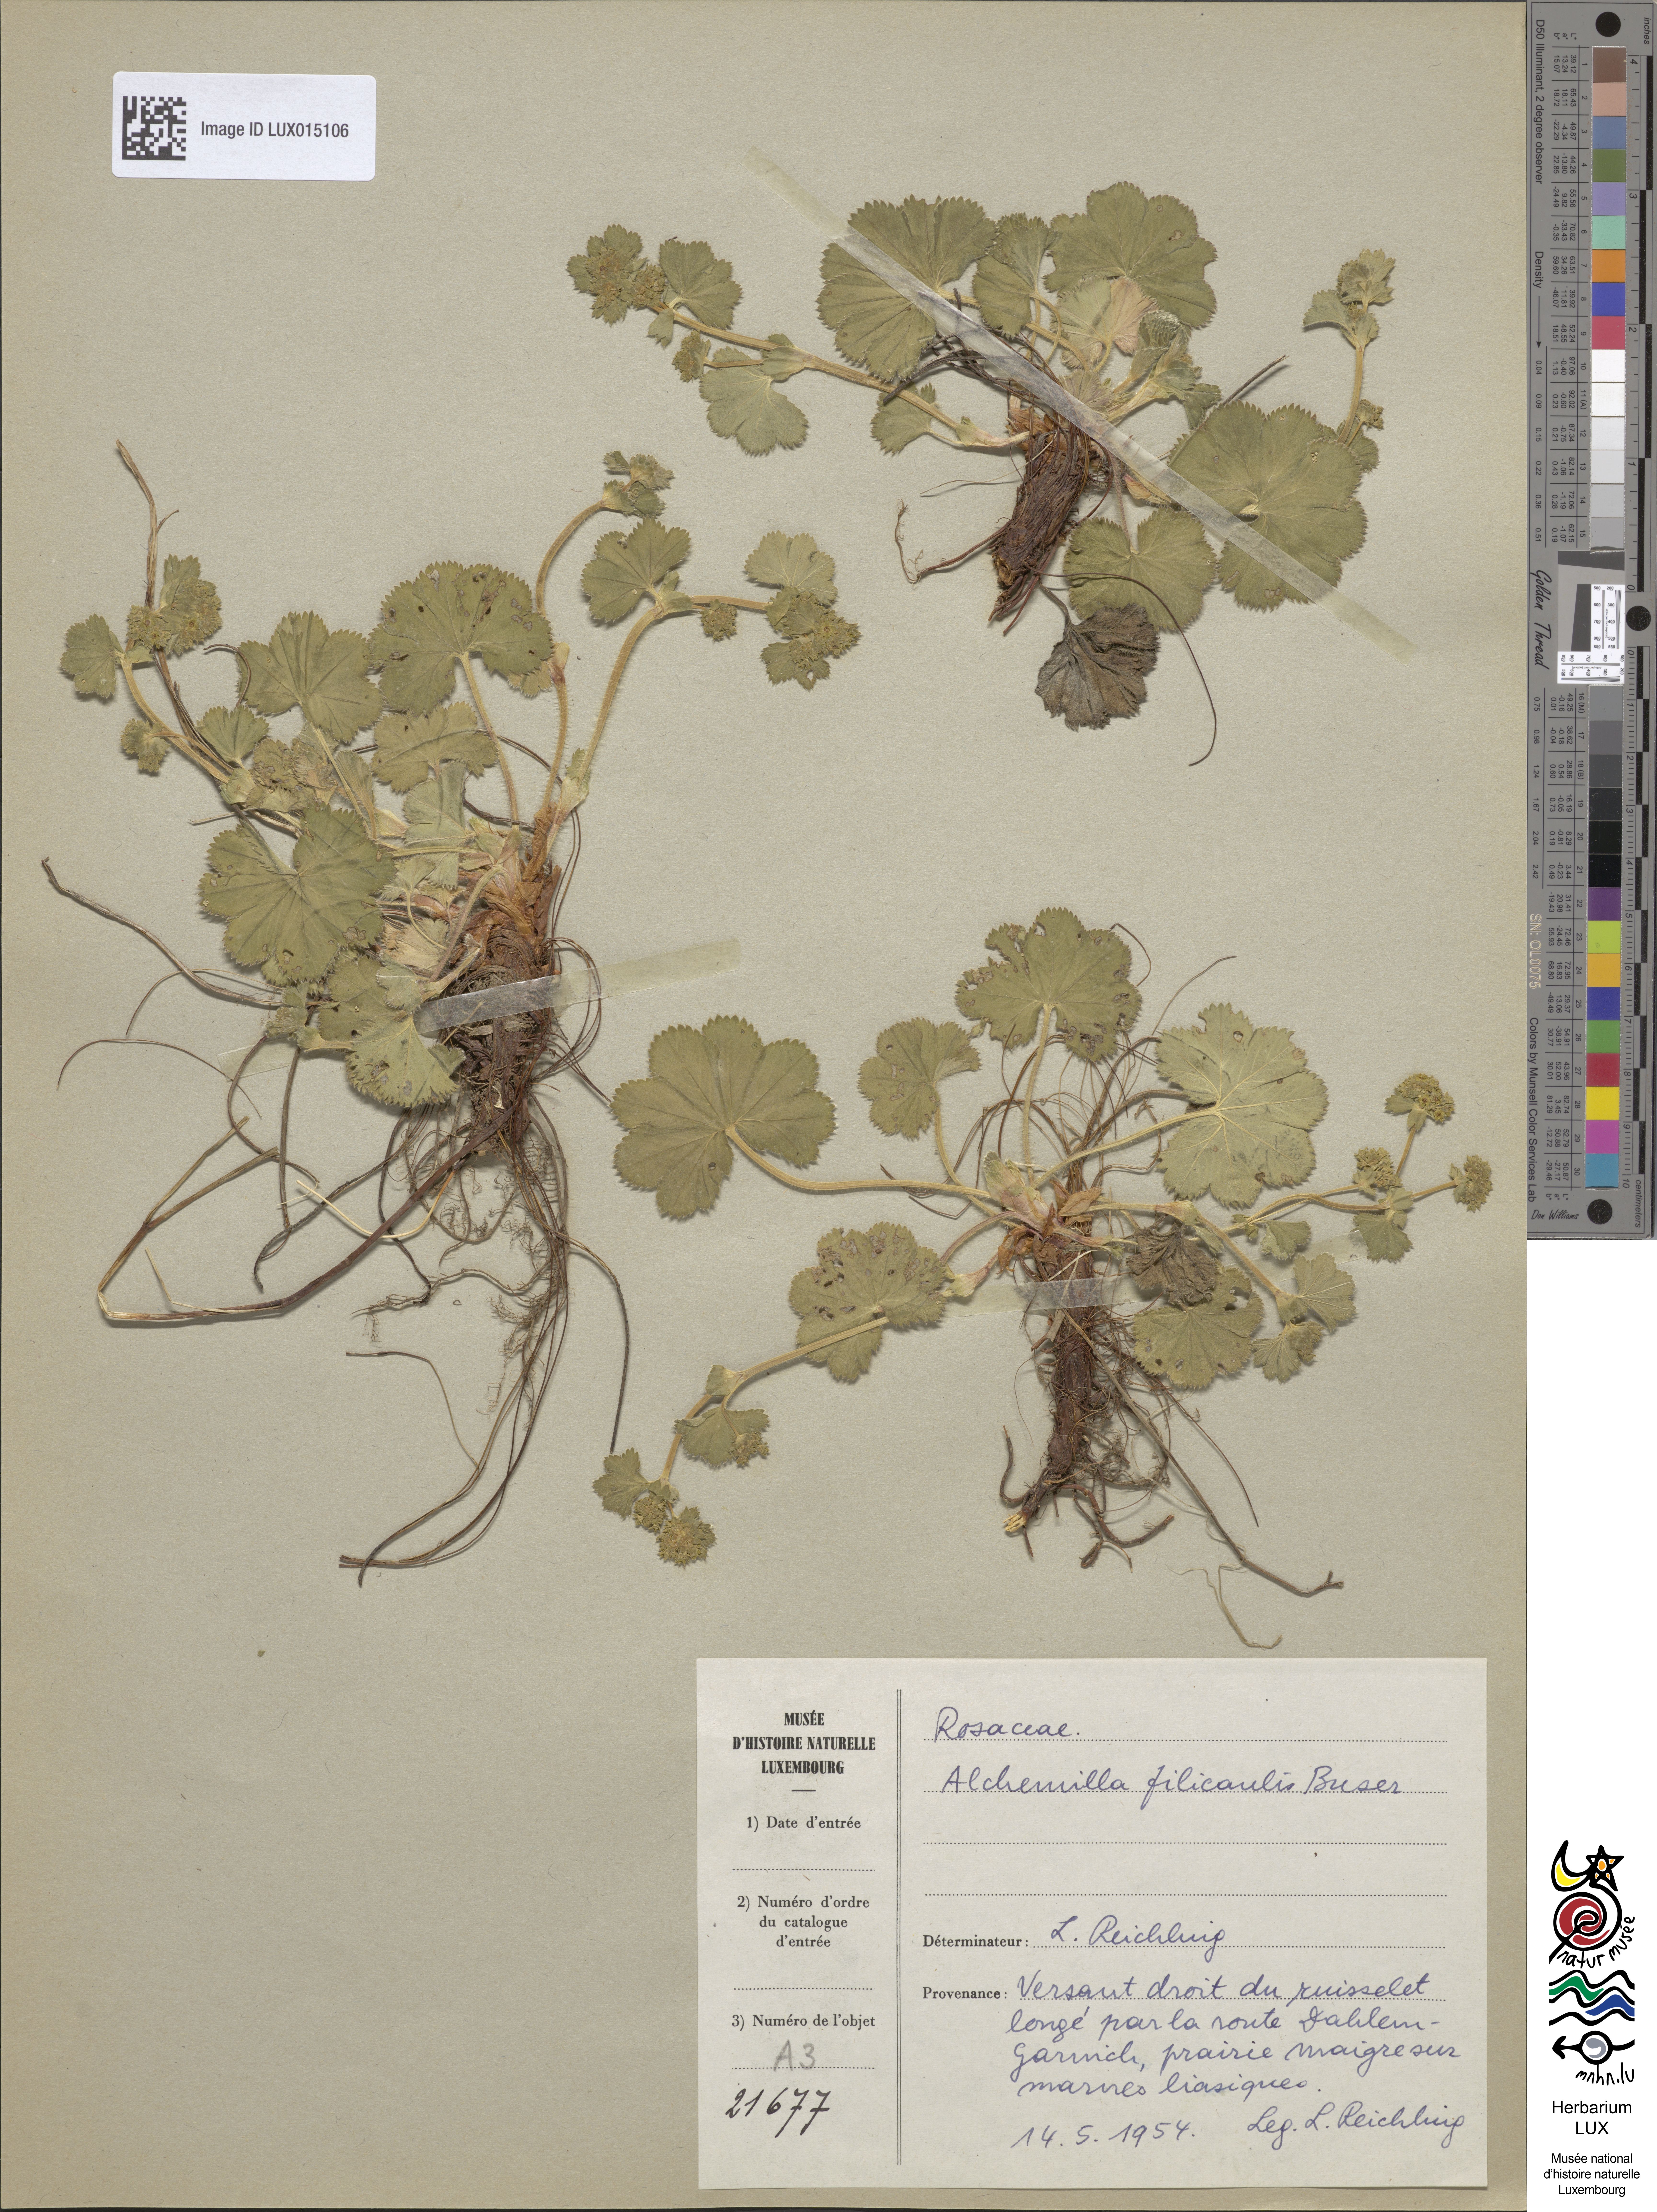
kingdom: Plantae
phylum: Tracheophyta
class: Magnoliopsida
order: Rosales
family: Rosaceae
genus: Alchemilla
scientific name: Alchemilla filicaulis
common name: Hairy lady's-mantle
